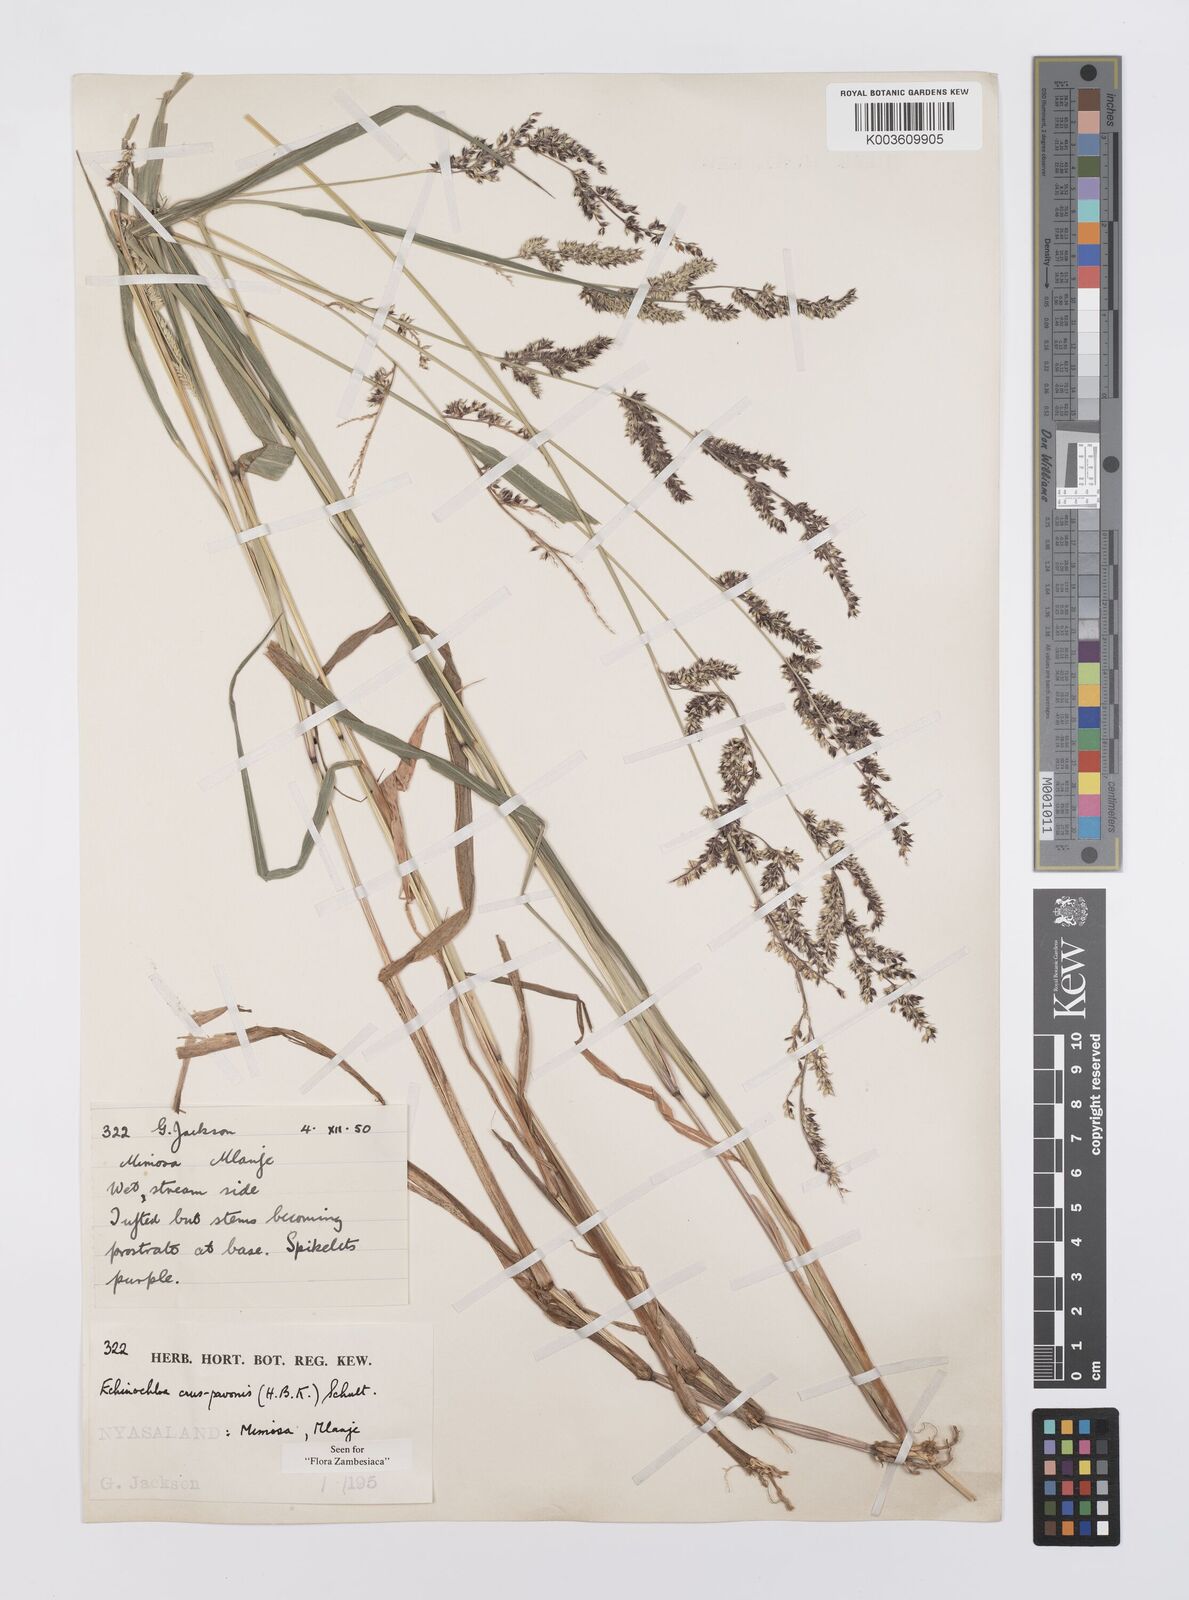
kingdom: Plantae
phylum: Tracheophyta
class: Liliopsida
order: Poales
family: Poaceae
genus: Echinochloa
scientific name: Echinochloa crus-pavonis
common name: Gulf cockspur grass
